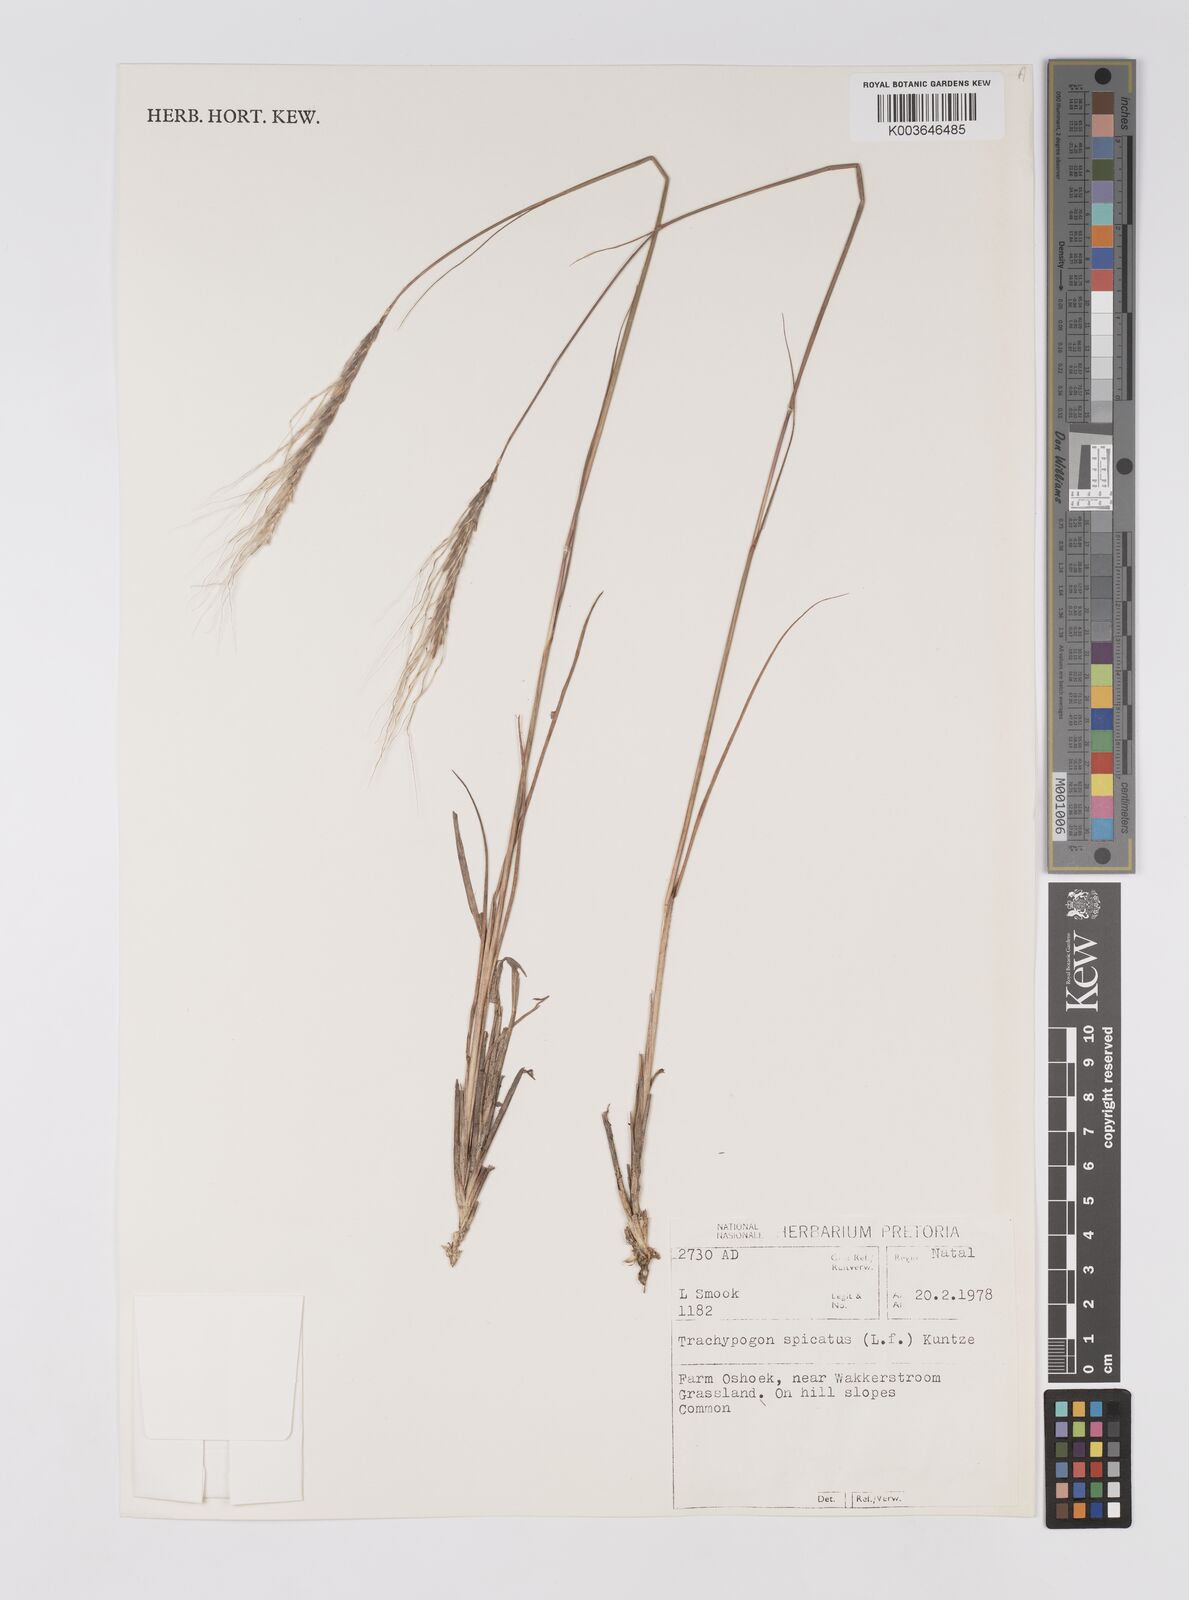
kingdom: Plantae
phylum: Tracheophyta
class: Liliopsida
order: Poales
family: Poaceae
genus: Trachypogon
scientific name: Trachypogon spicatus
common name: Crinkle-awn
